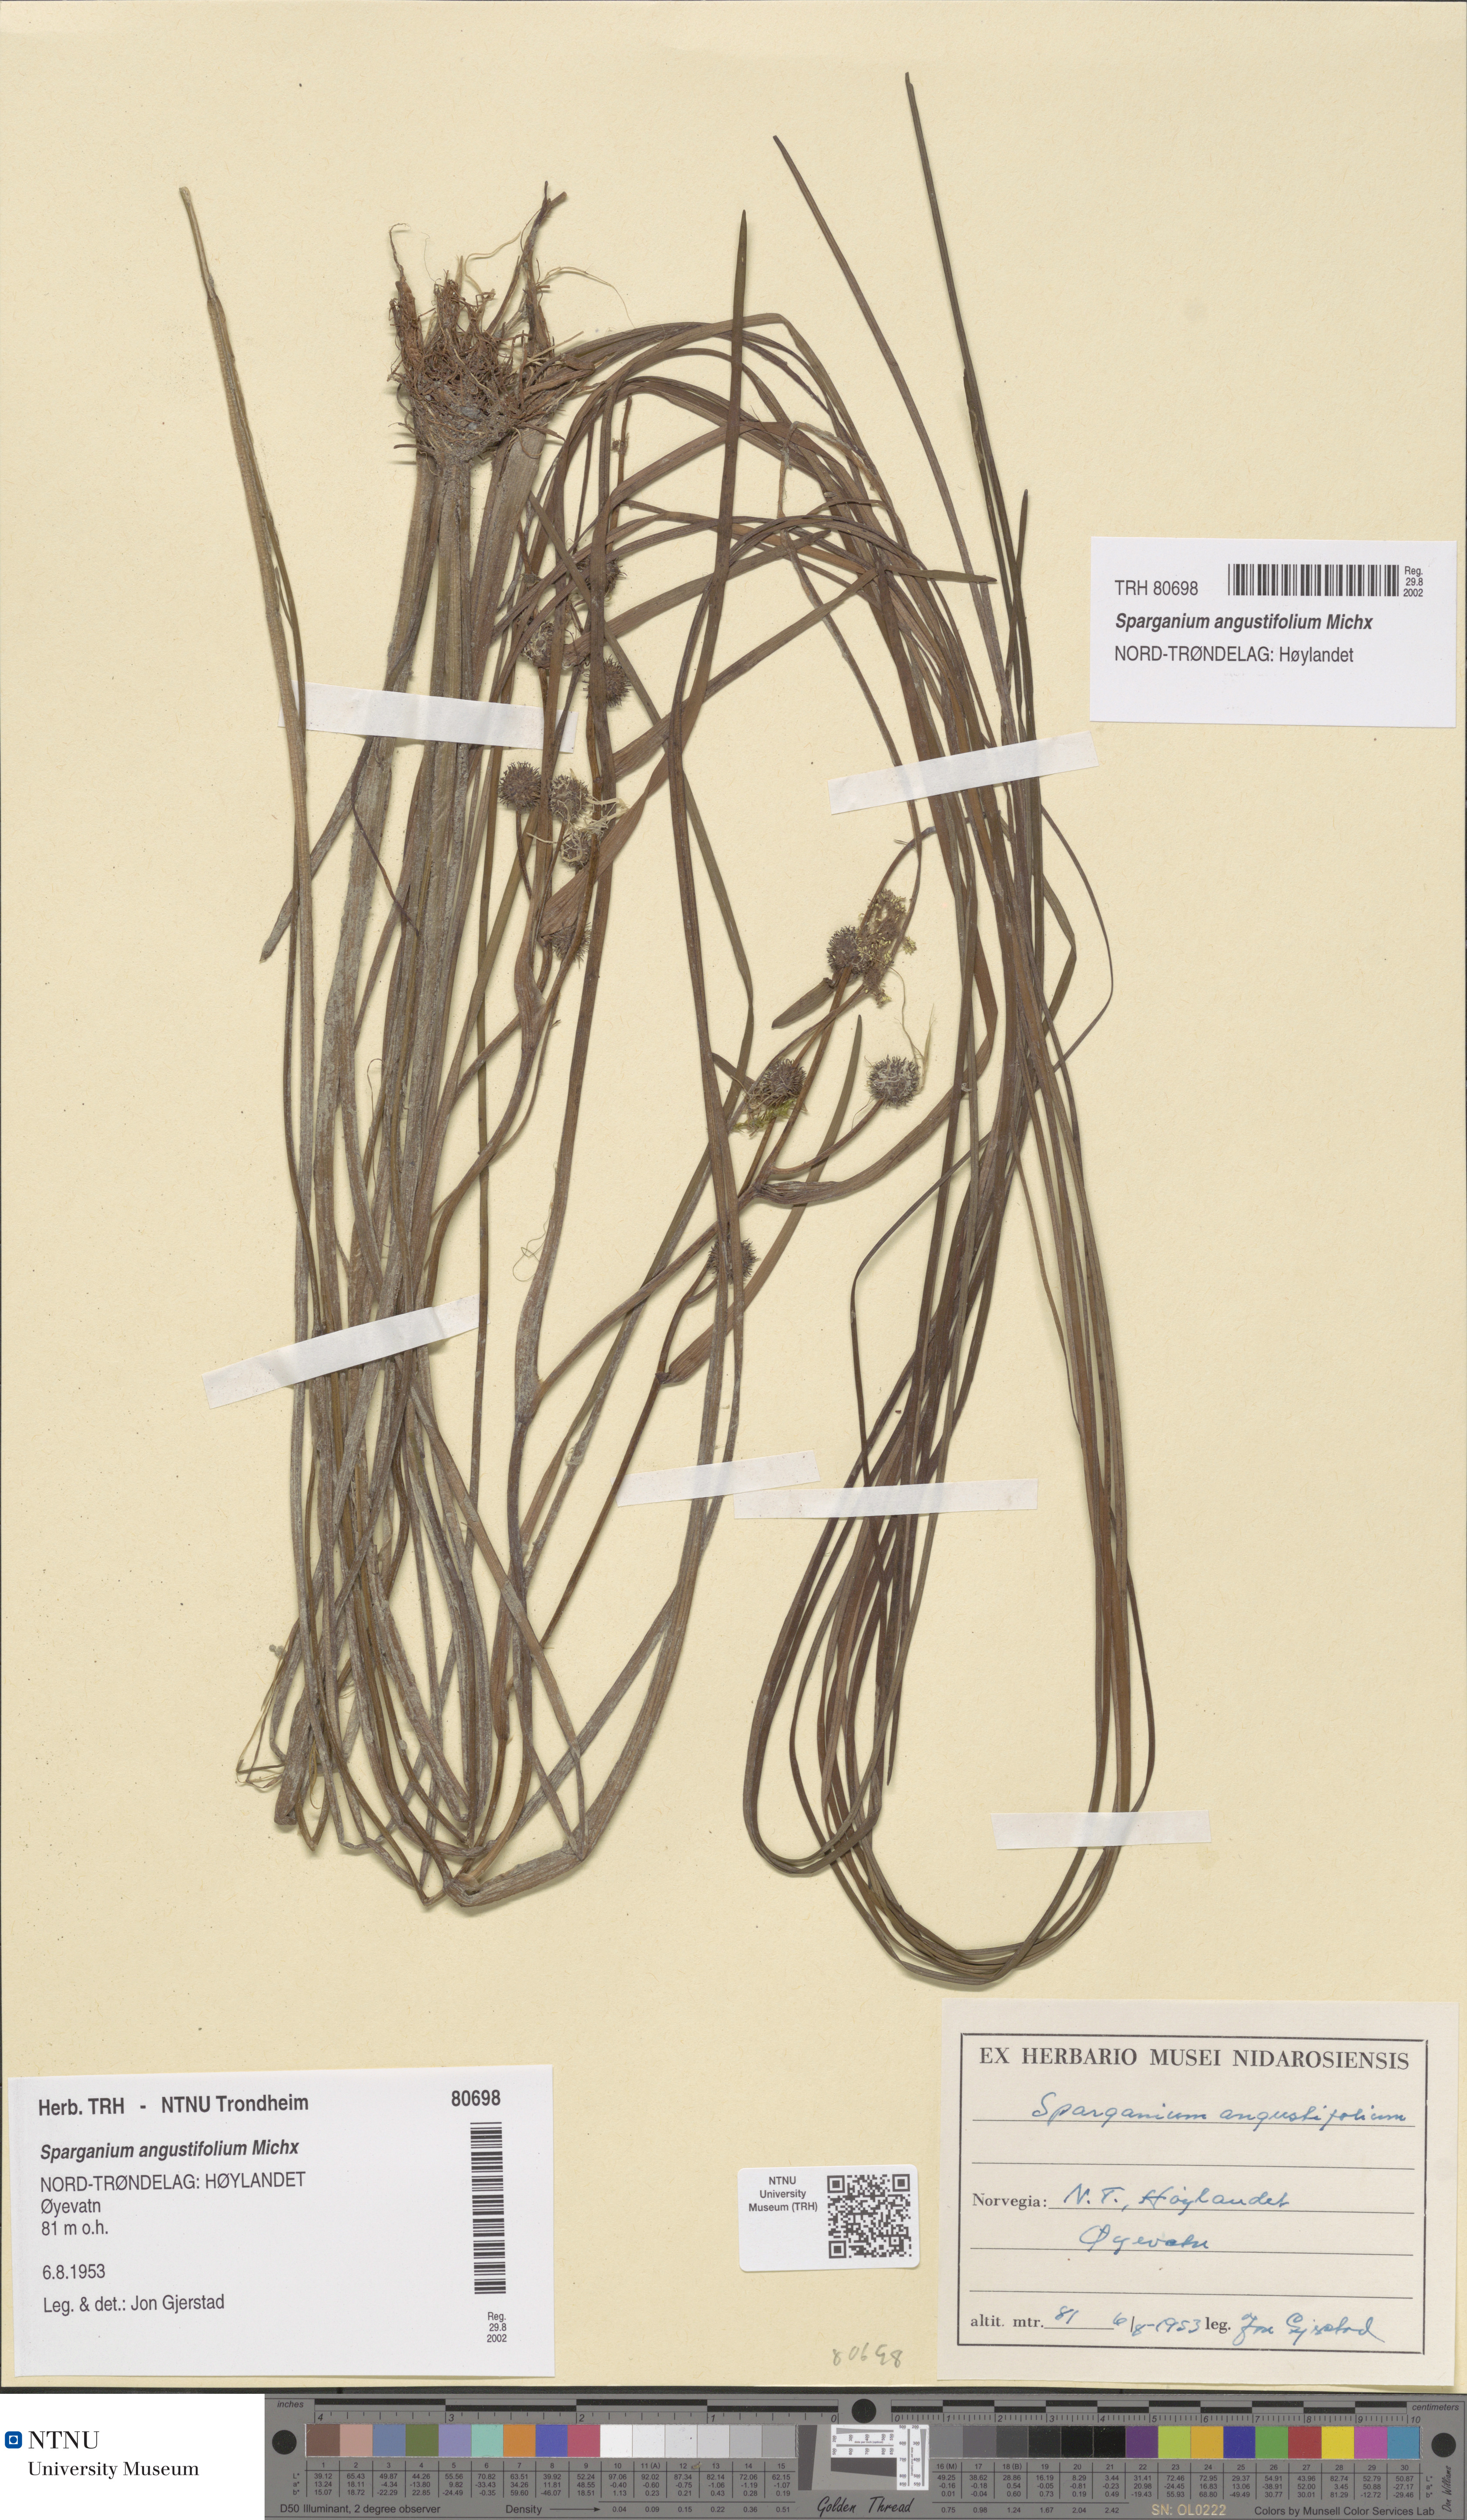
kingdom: Plantae
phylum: Tracheophyta
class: Liliopsida
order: Poales
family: Typhaceae
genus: Sparganium
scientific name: Sparganium angustifolium
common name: Floating bur-reed
